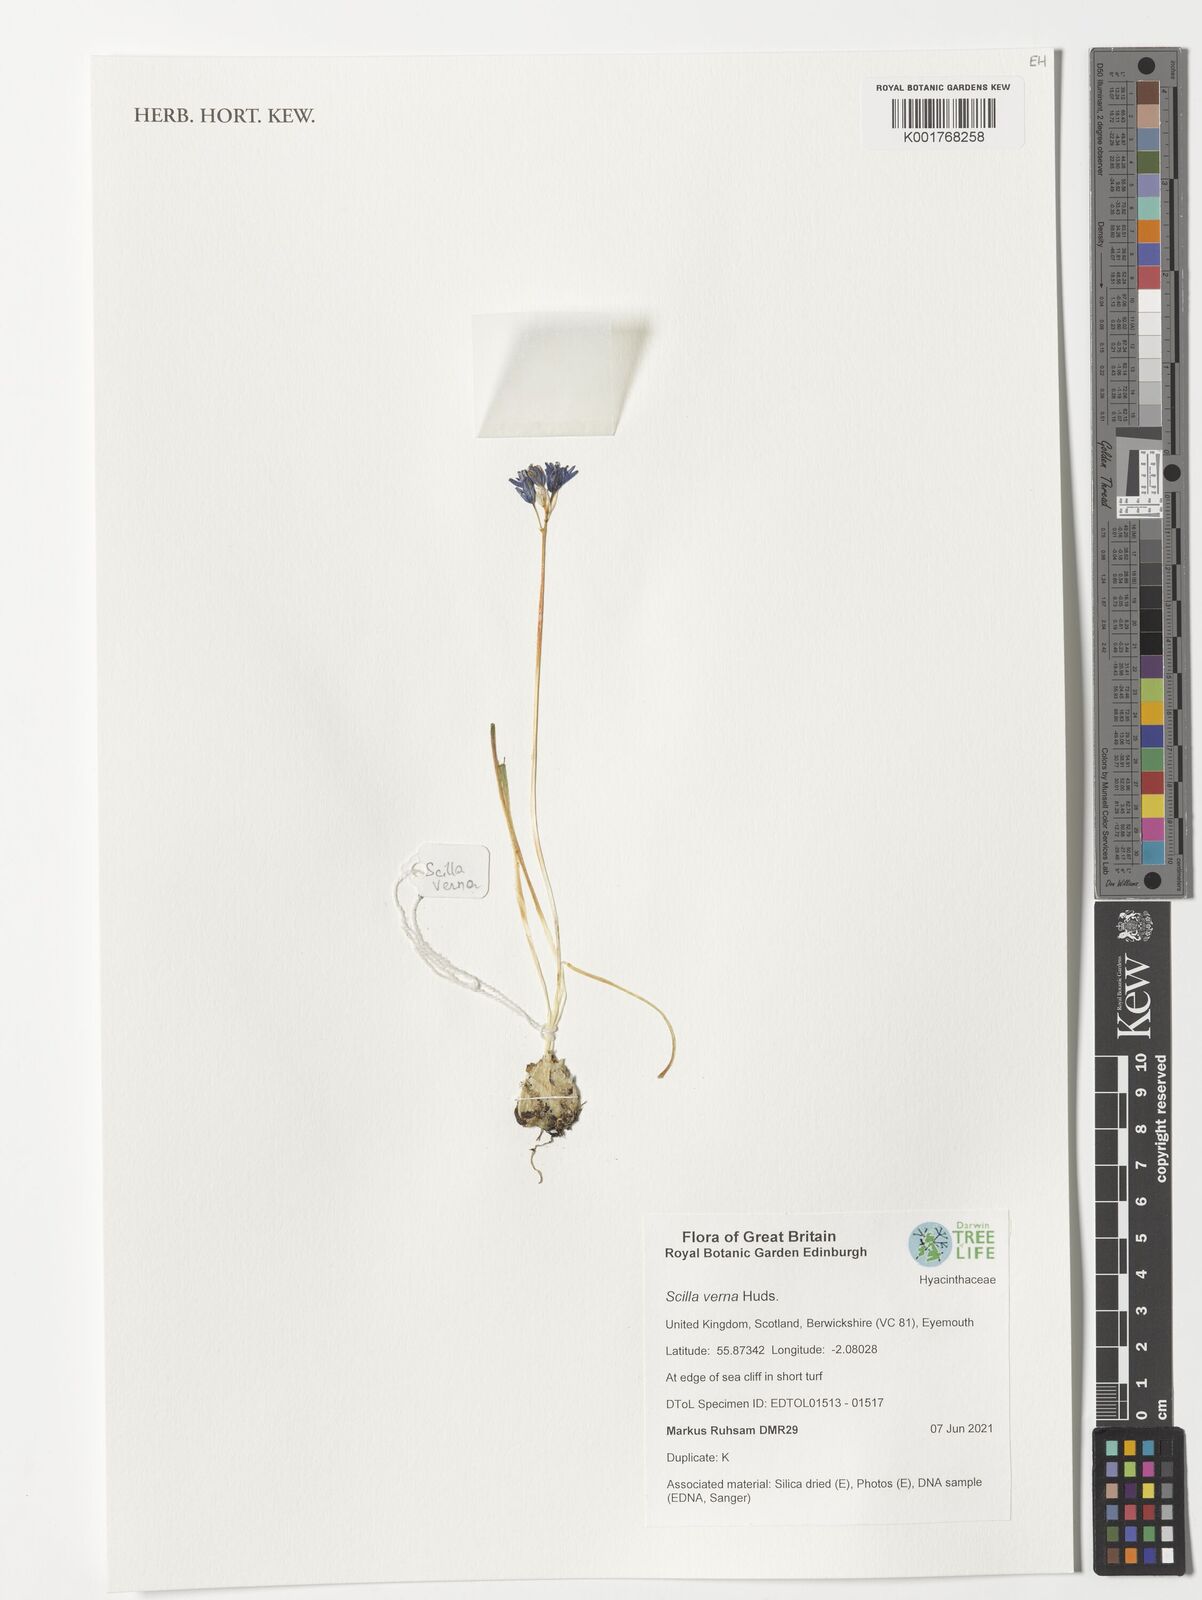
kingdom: Plantae
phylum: Tracheophyta
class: Liliopsida
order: Asparagales
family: Asparagaceae
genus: Scilla
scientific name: Scilla verna
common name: Spring squill
